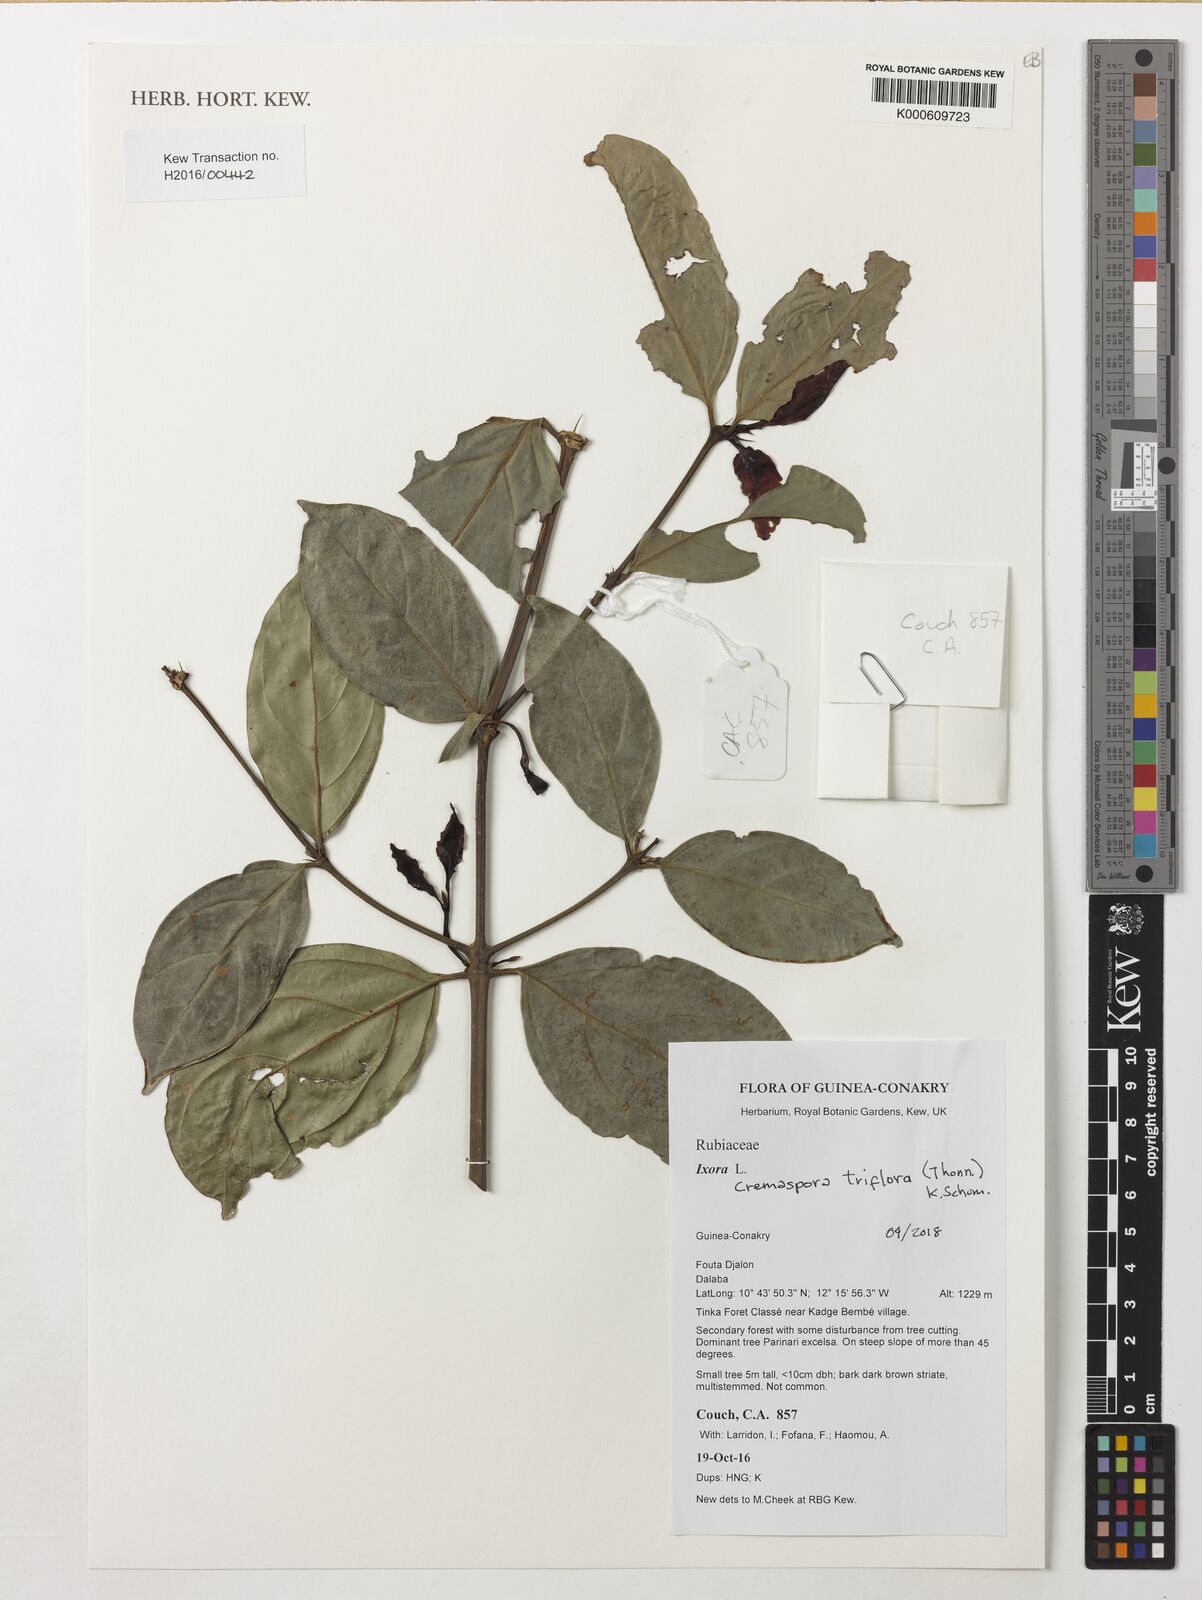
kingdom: Plantae
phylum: Tracheophyta
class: Magnoliopsida
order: Gentianales
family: Rubiaceae
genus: Cremaspora
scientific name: Cremaspora triflora
